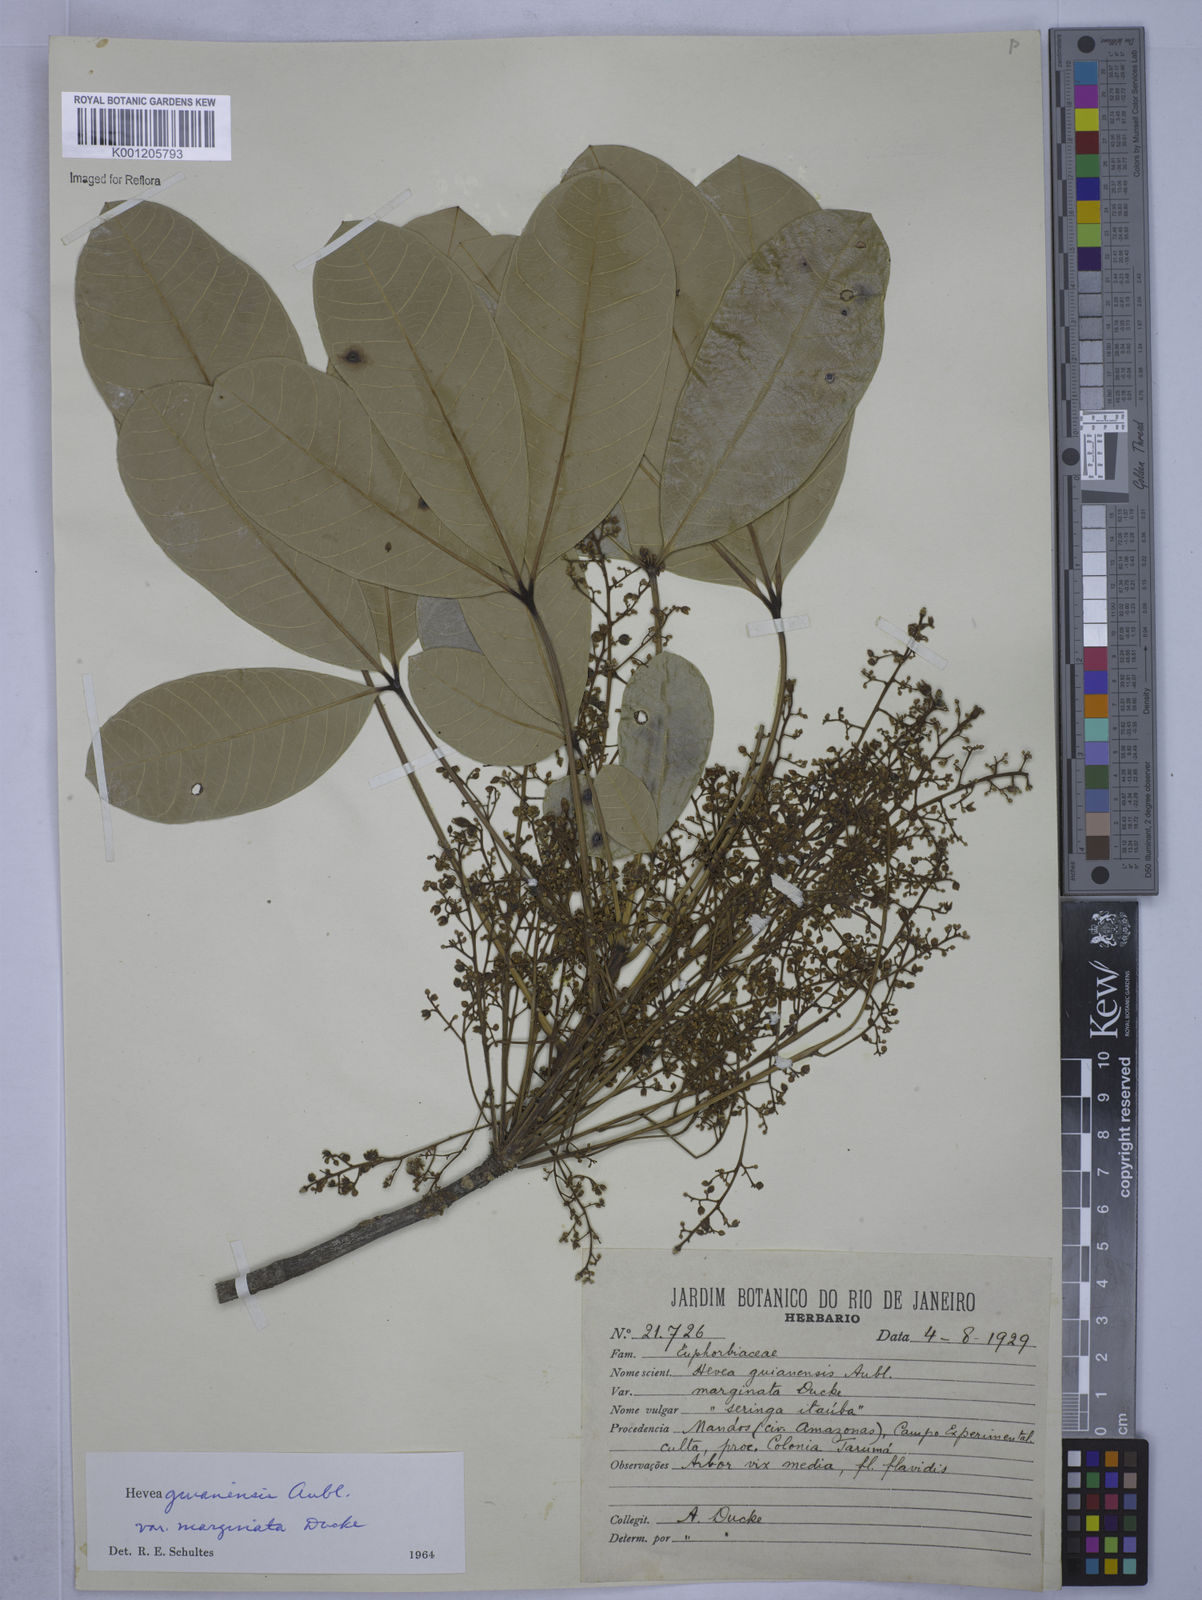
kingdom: Plantae
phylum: Tracheophyta
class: Magnoliopsida
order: Malpighiales
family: Euphorbiaceae
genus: Hevea
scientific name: Hevea guianensis
